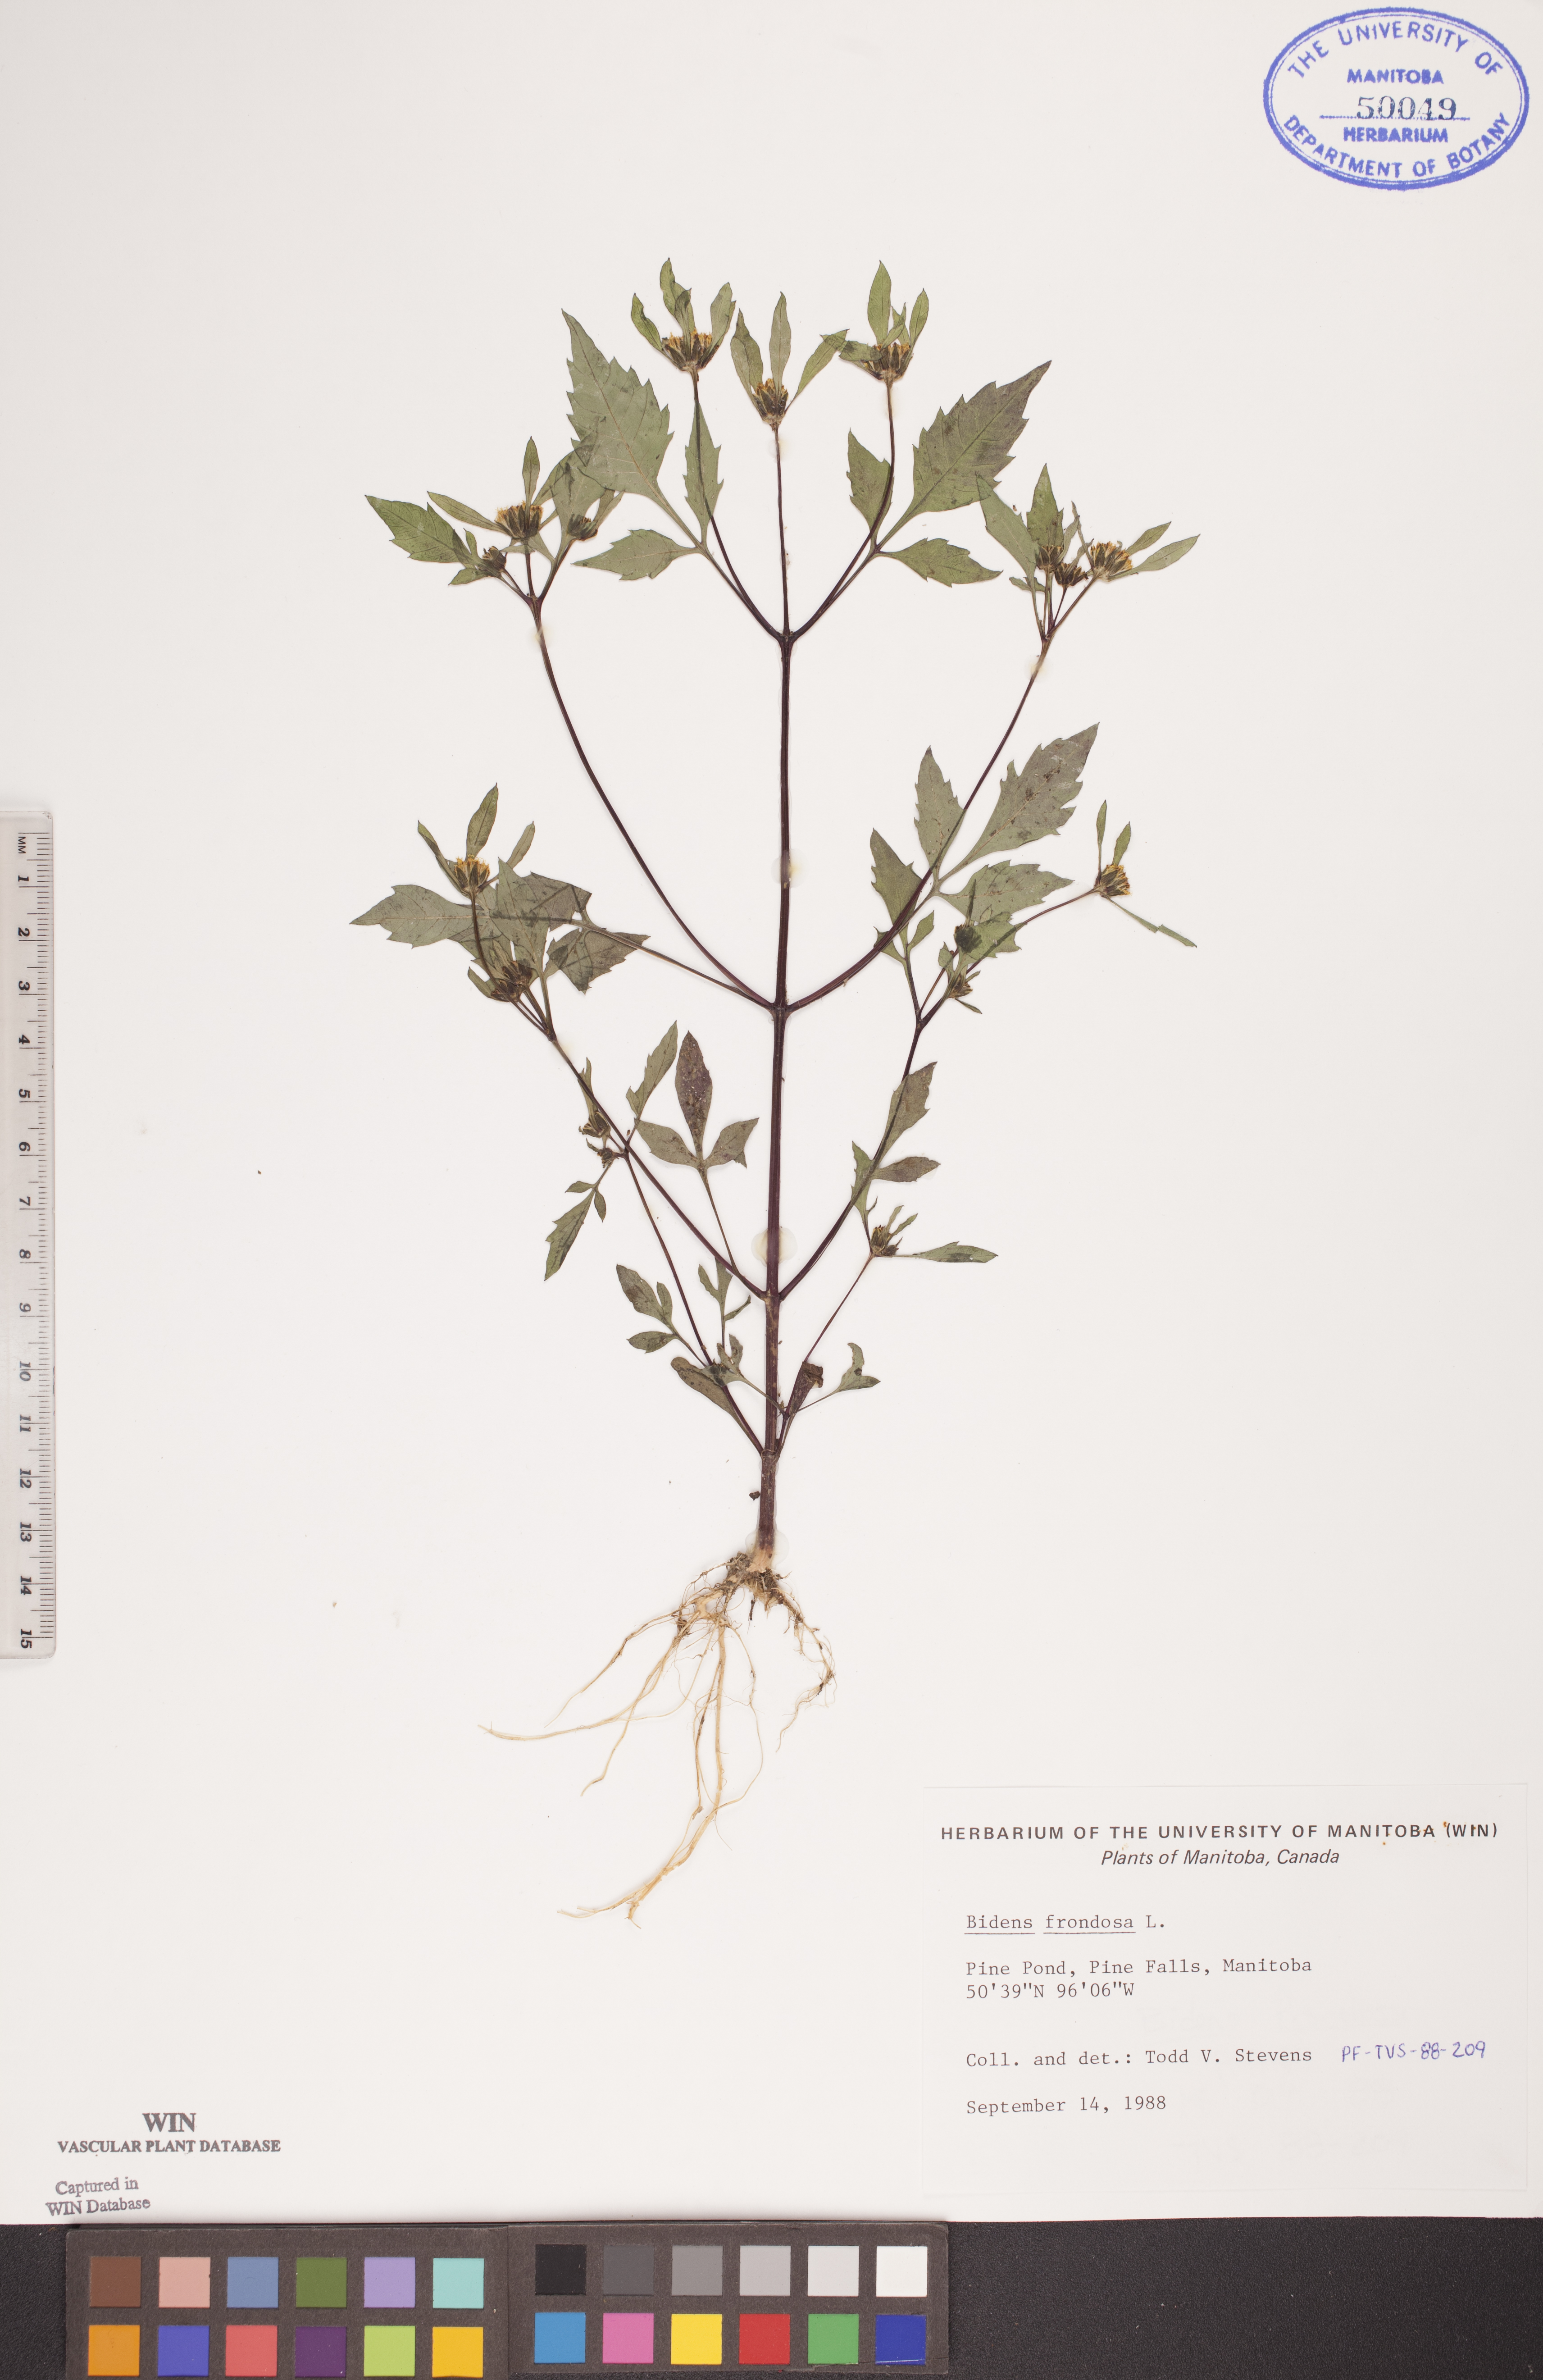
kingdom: Plantae
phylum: Tracheophyta
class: Magnoliopsida
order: Asterales
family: Asteraceae
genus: Bidens
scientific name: Bidens frondosa
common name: Beggarticks
